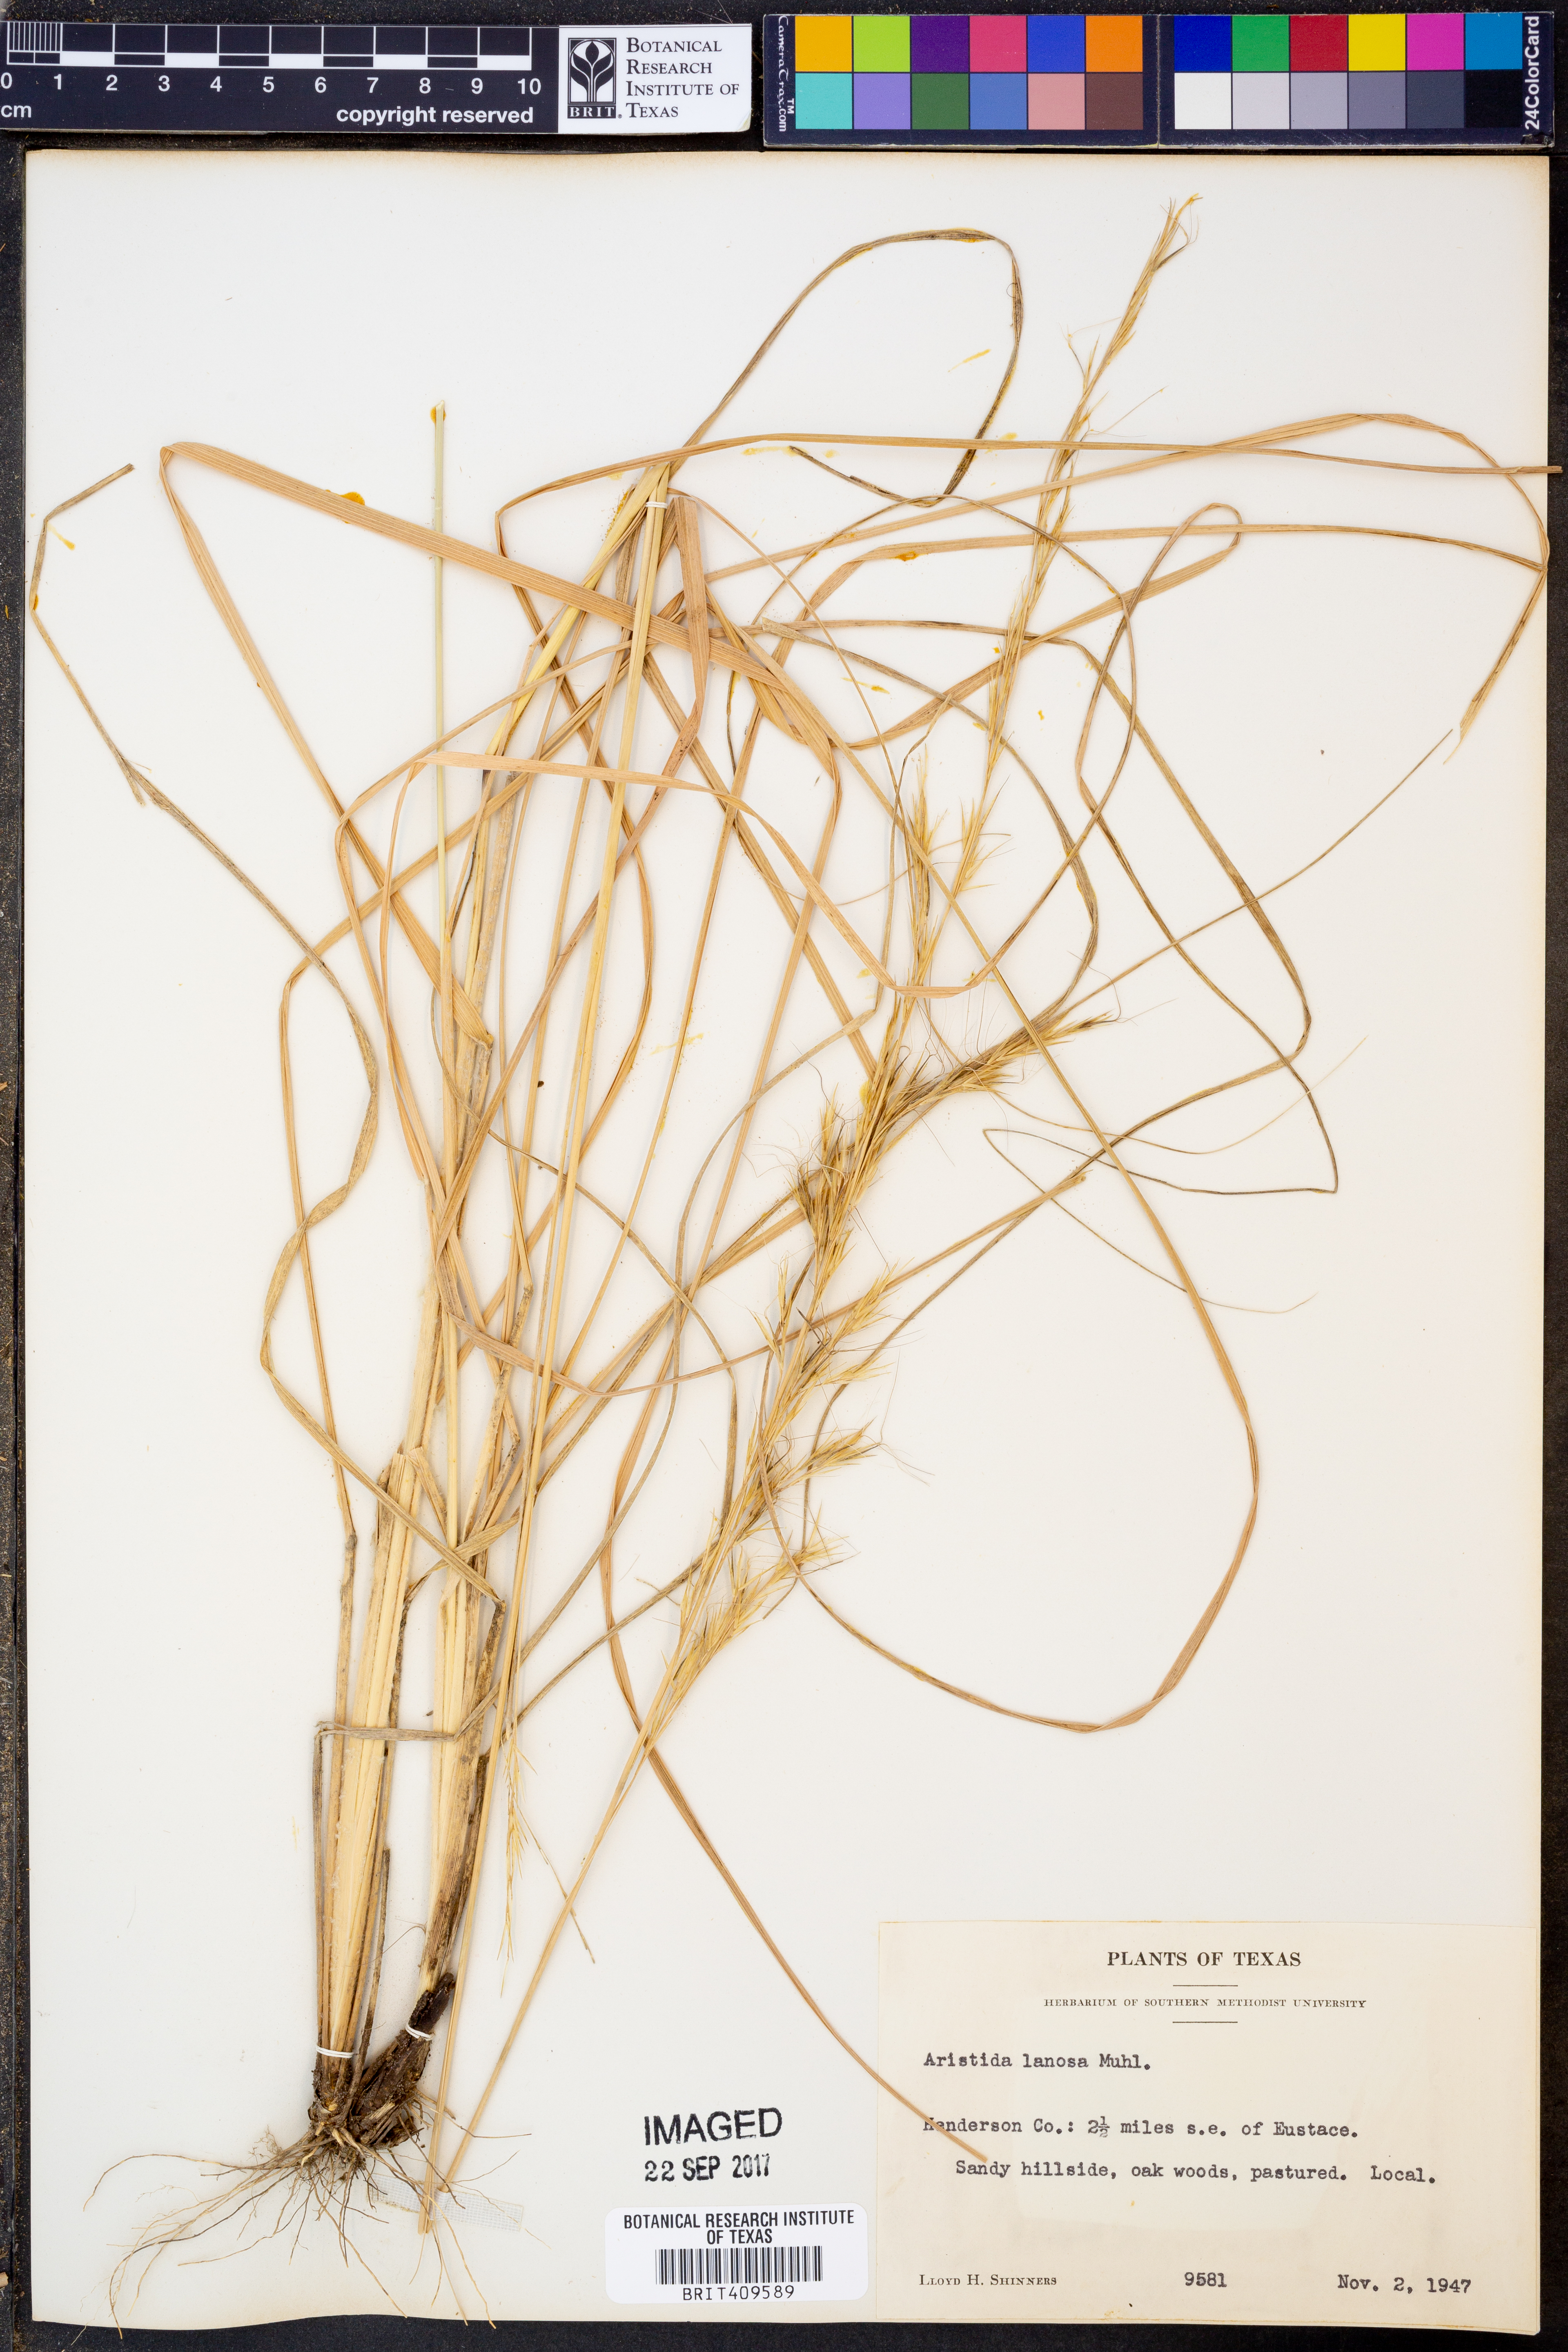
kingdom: Plantae
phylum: Tracheophyta
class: Liliopsida
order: Poales
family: Poaceae
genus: Aristida
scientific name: Aristida lanosa
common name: Woolly three-awn
